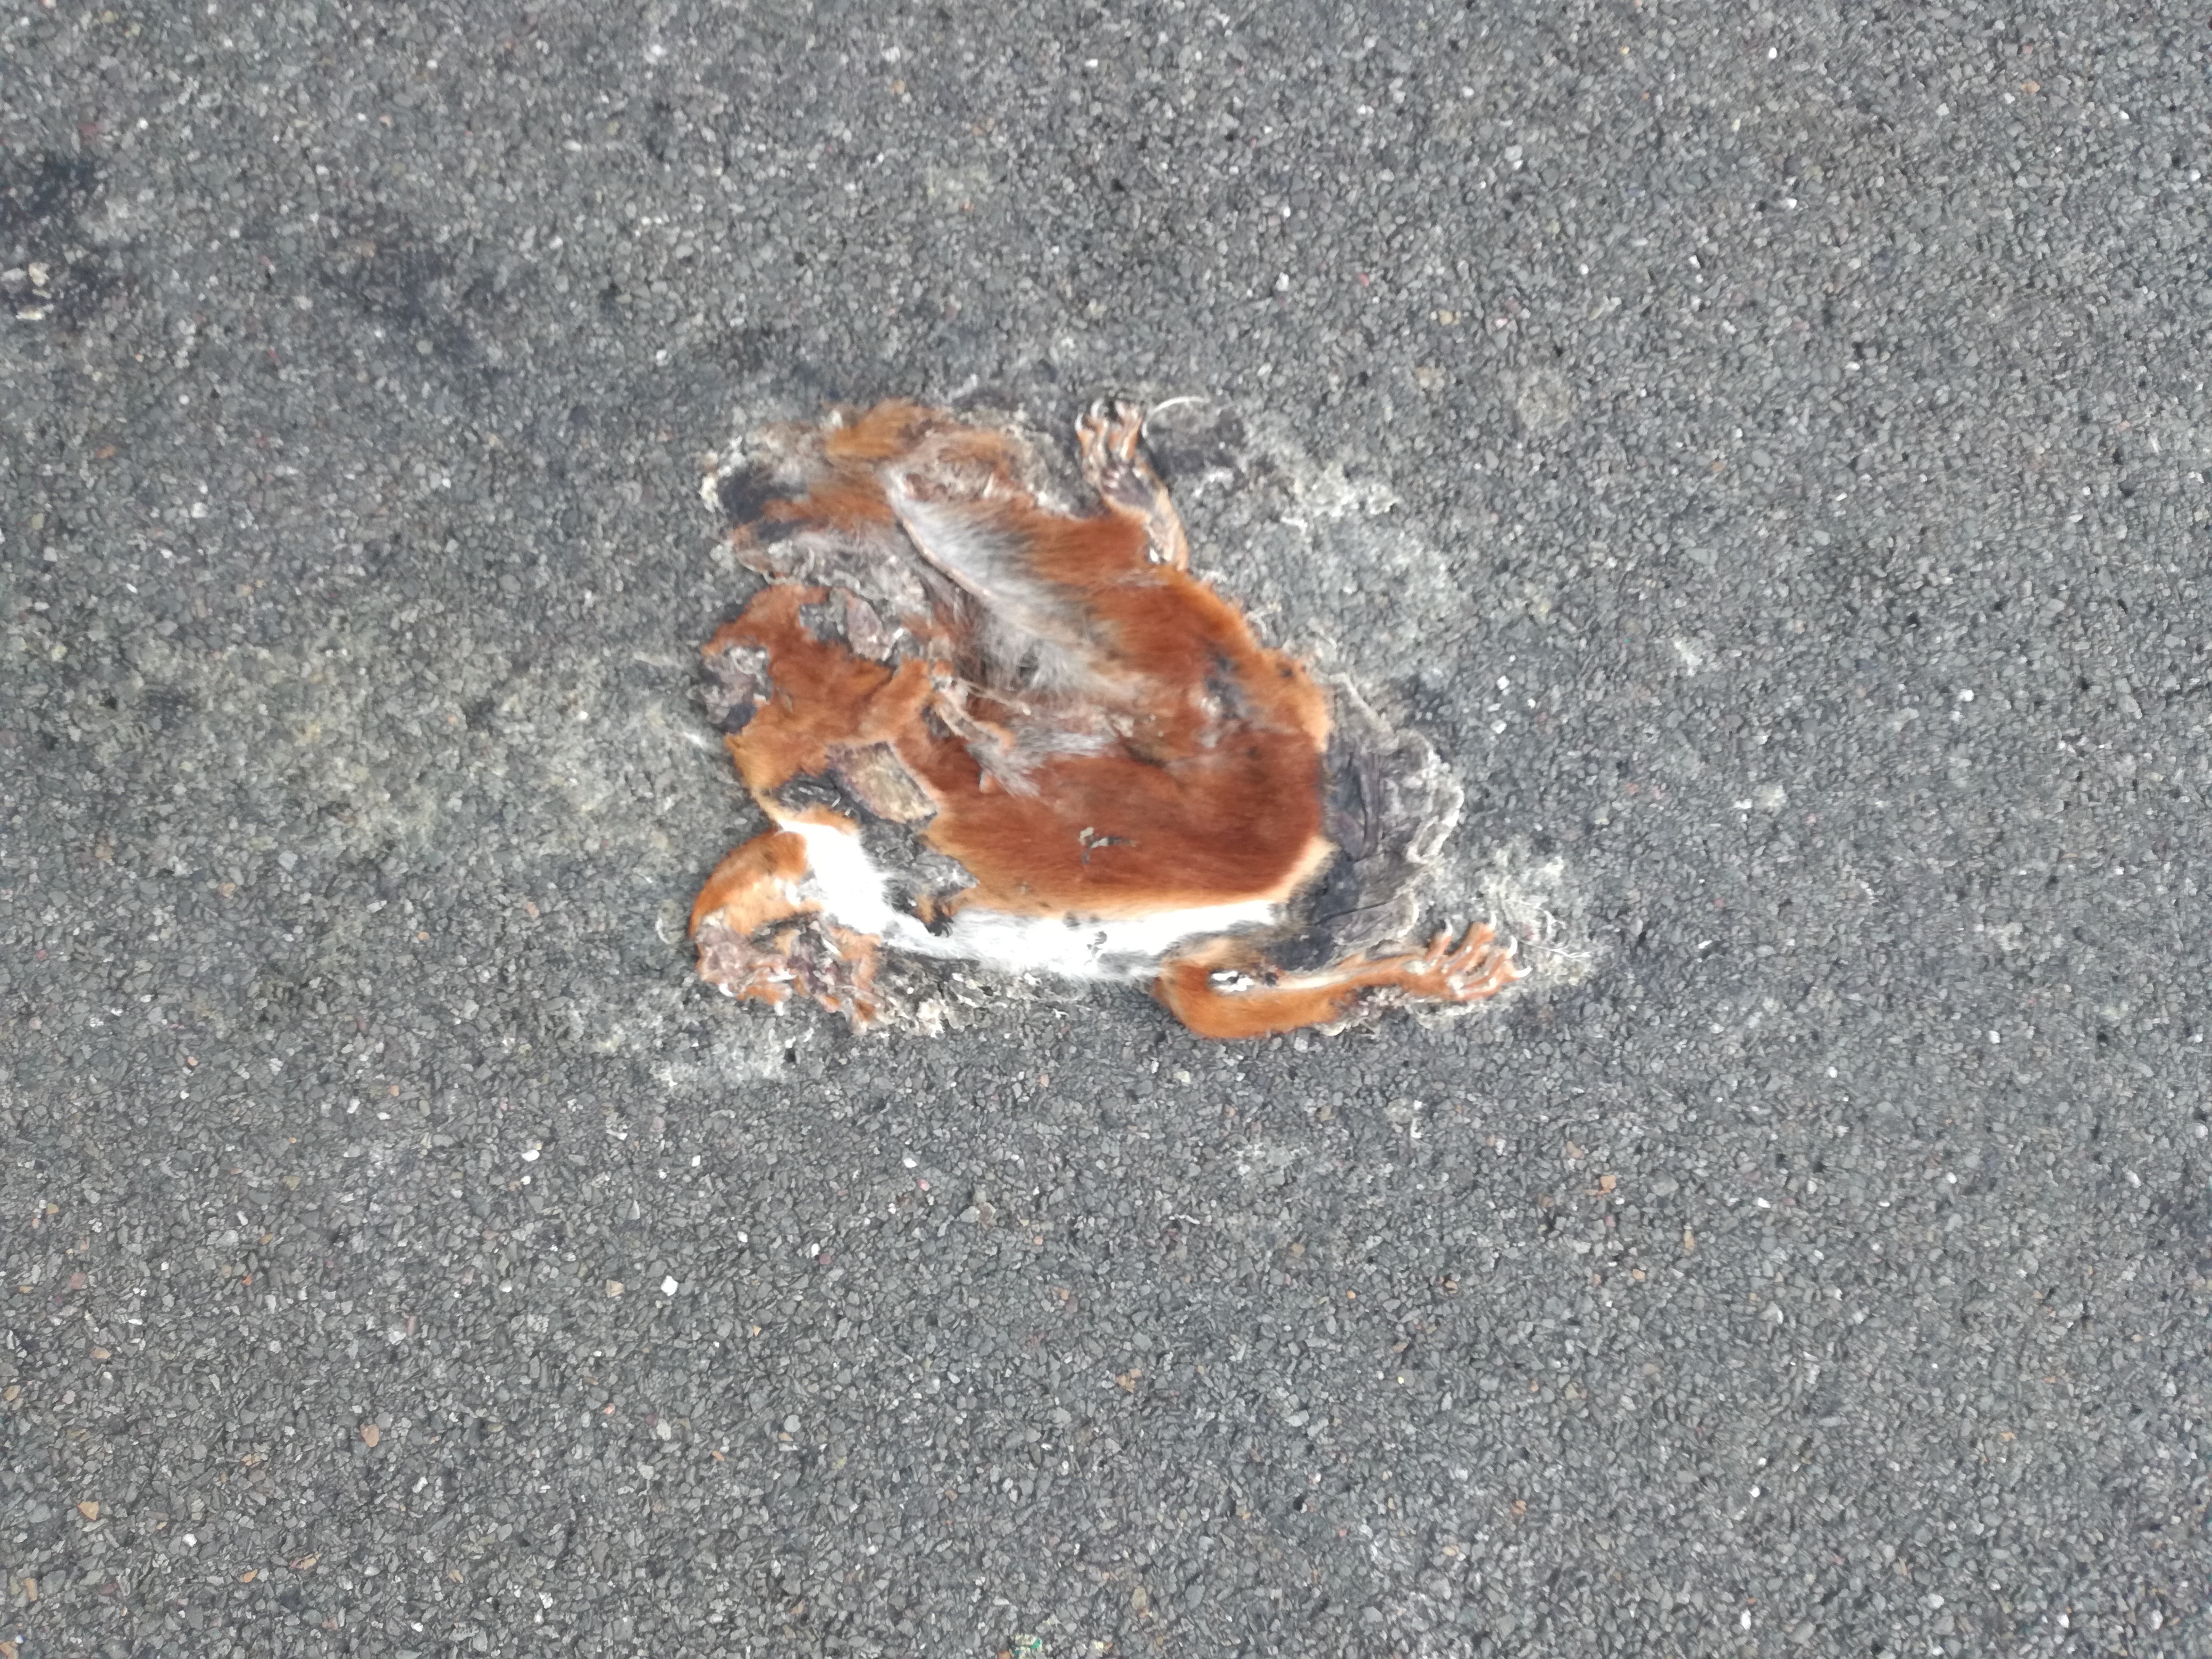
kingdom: Animalia
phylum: Chordata
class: Mammalia
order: Rodentia
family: Sciuridae
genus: Sciurus
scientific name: Sciurus vulgaris
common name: Eurasian red squirrel
